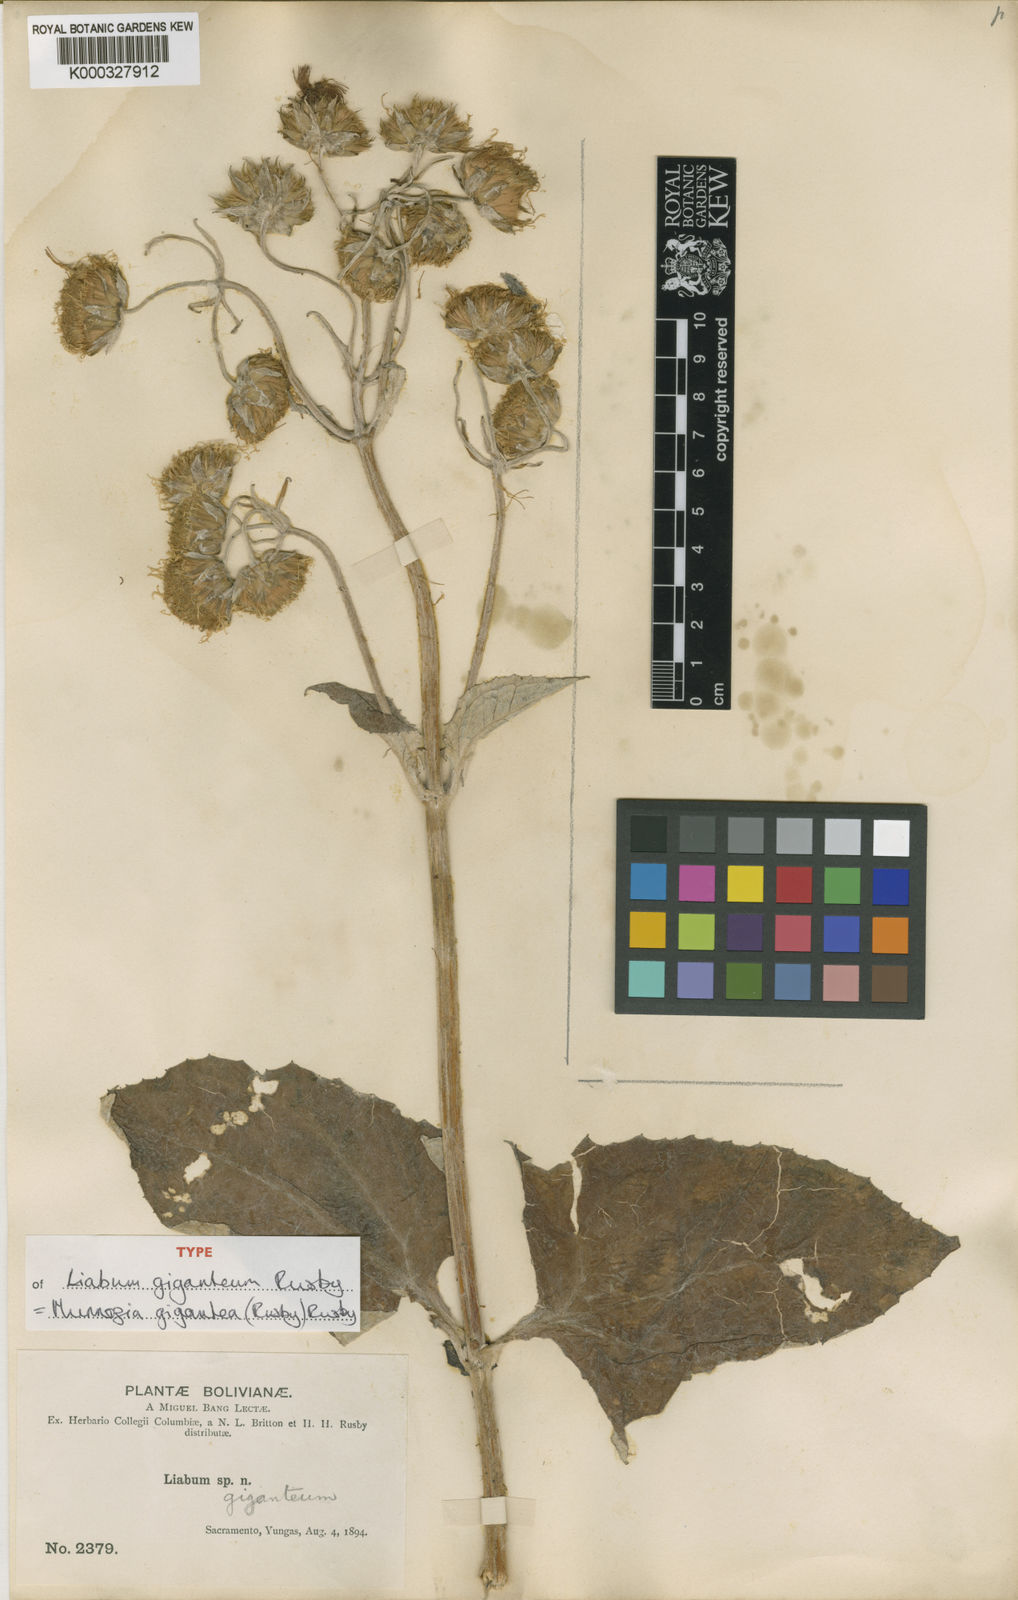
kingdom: Plantae
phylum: Tracheophyta
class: Magnoliopsida
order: Asterales
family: Asteraceae
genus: Munnozia
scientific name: Munnozia gigantea
